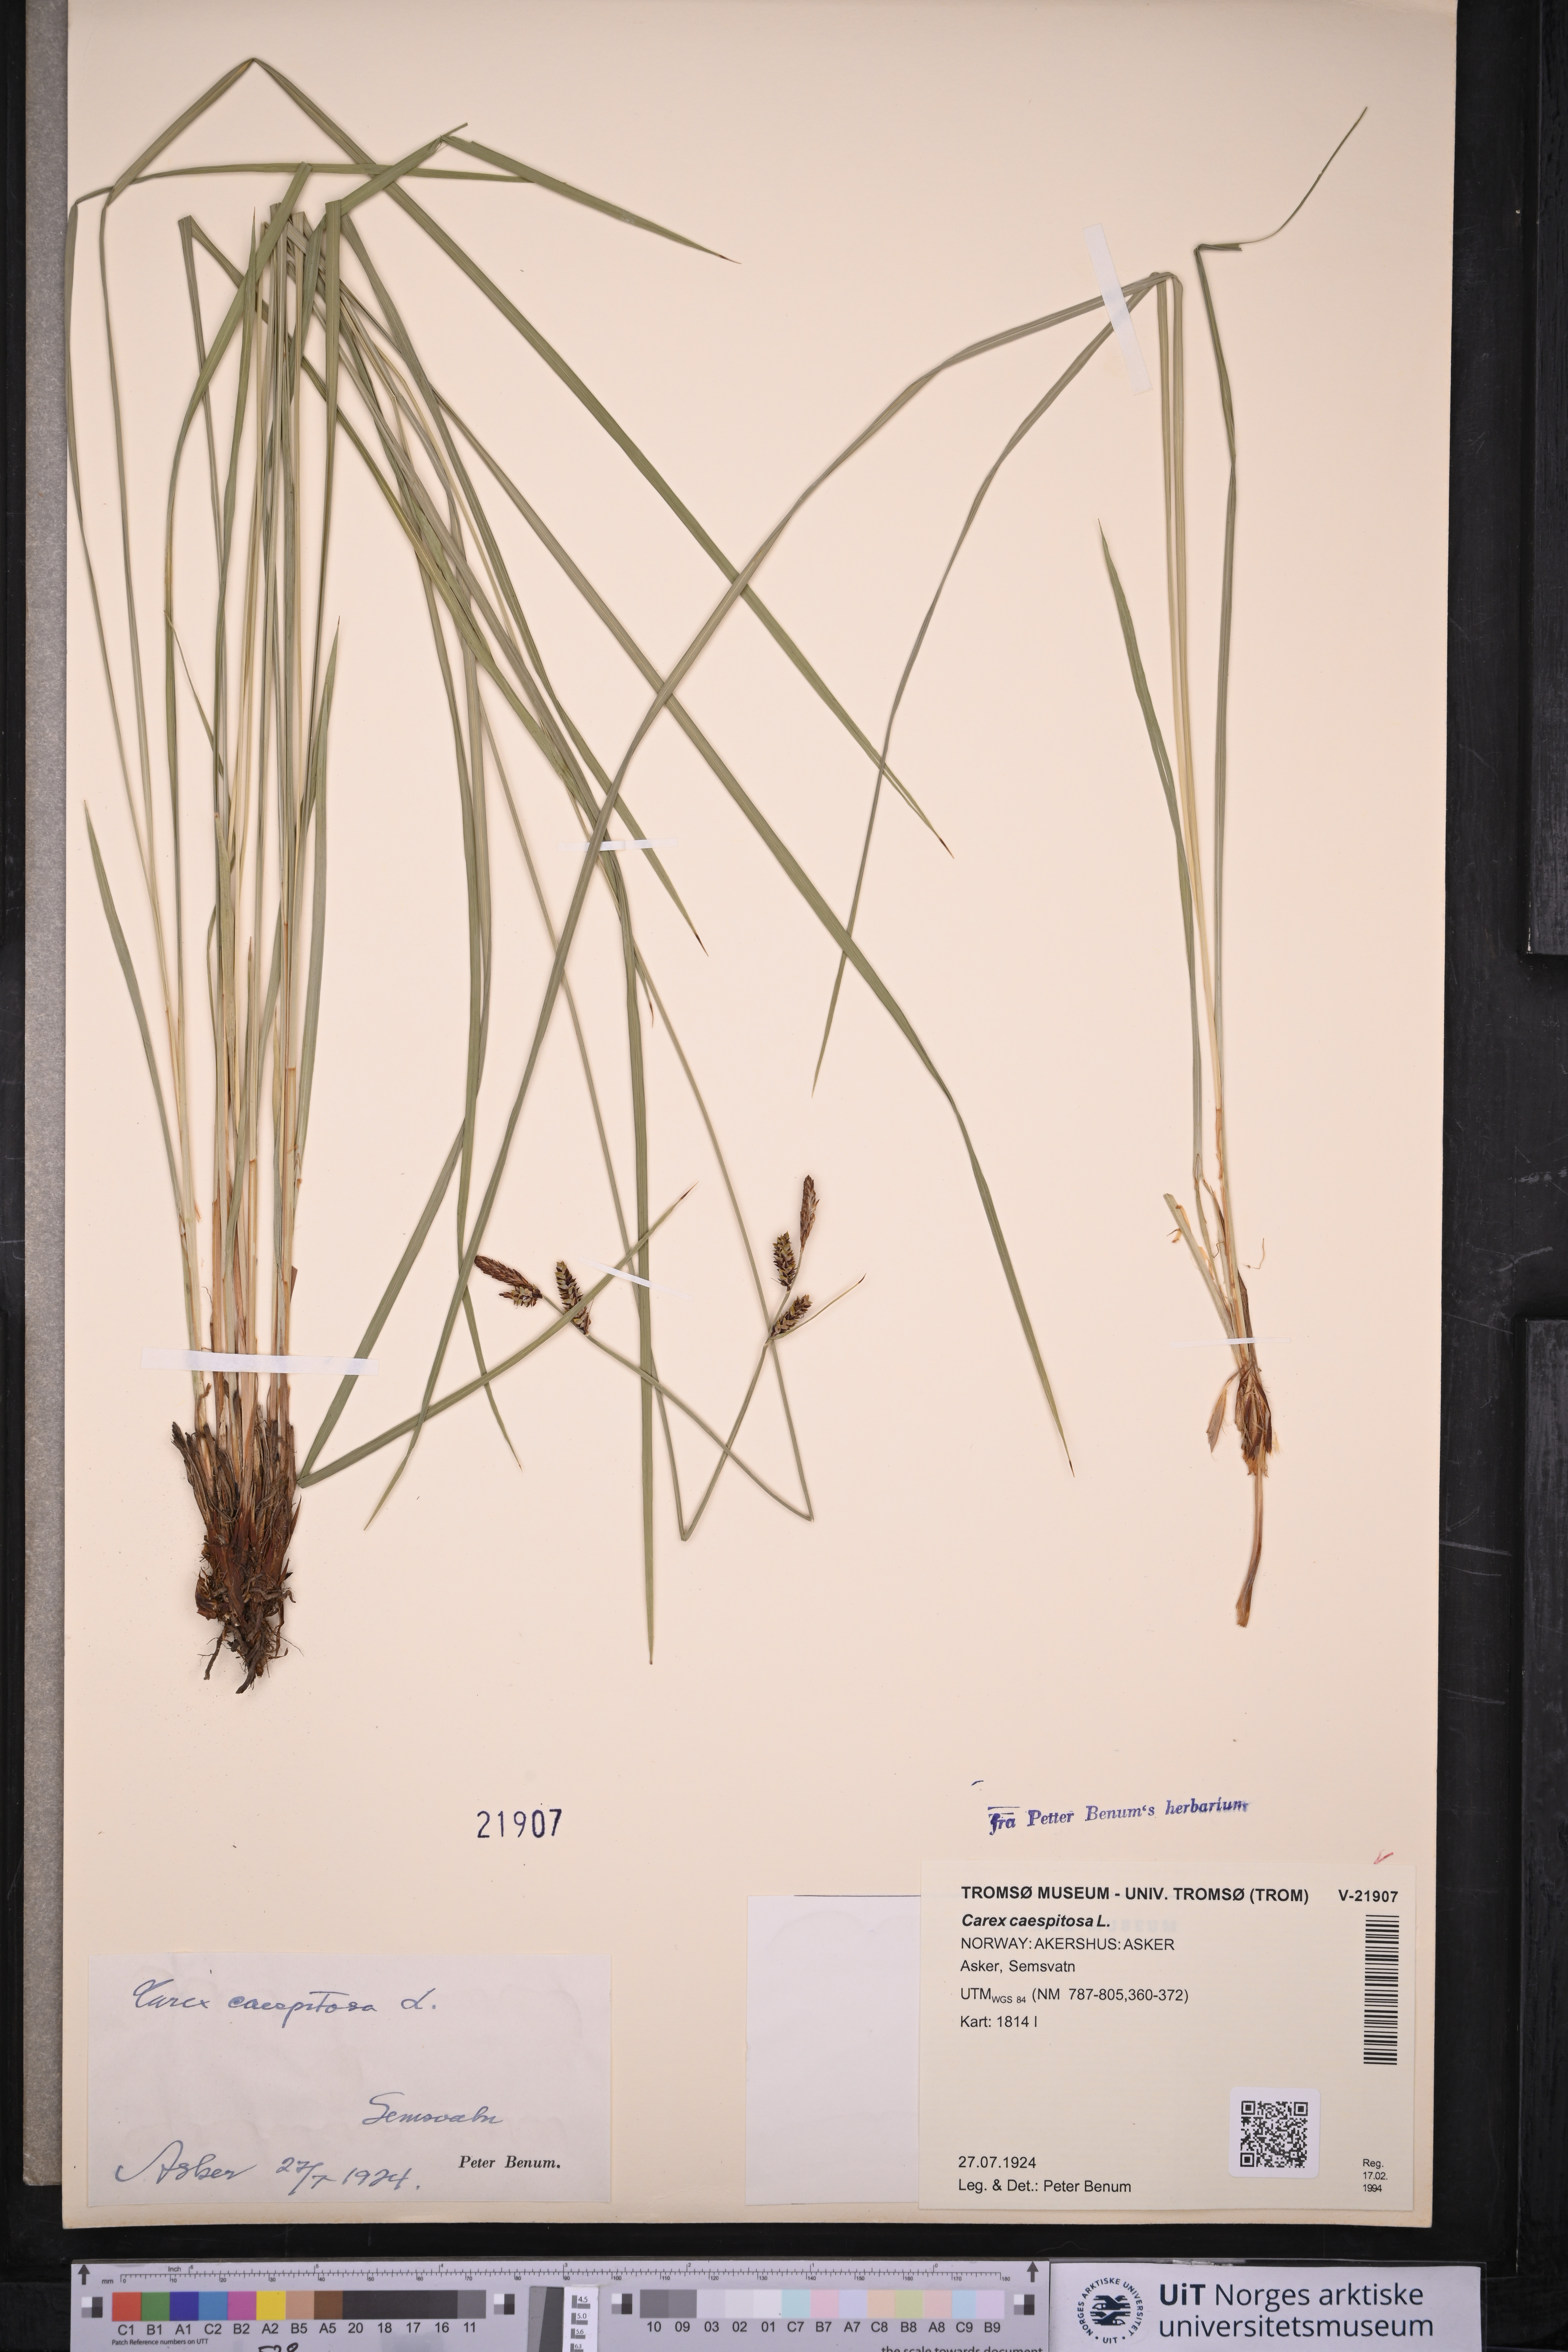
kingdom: Plantae
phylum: Tracheophyta
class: Liliopsida
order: Poales
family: Cyperaceae
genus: Carex
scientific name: Carex cespitosa
